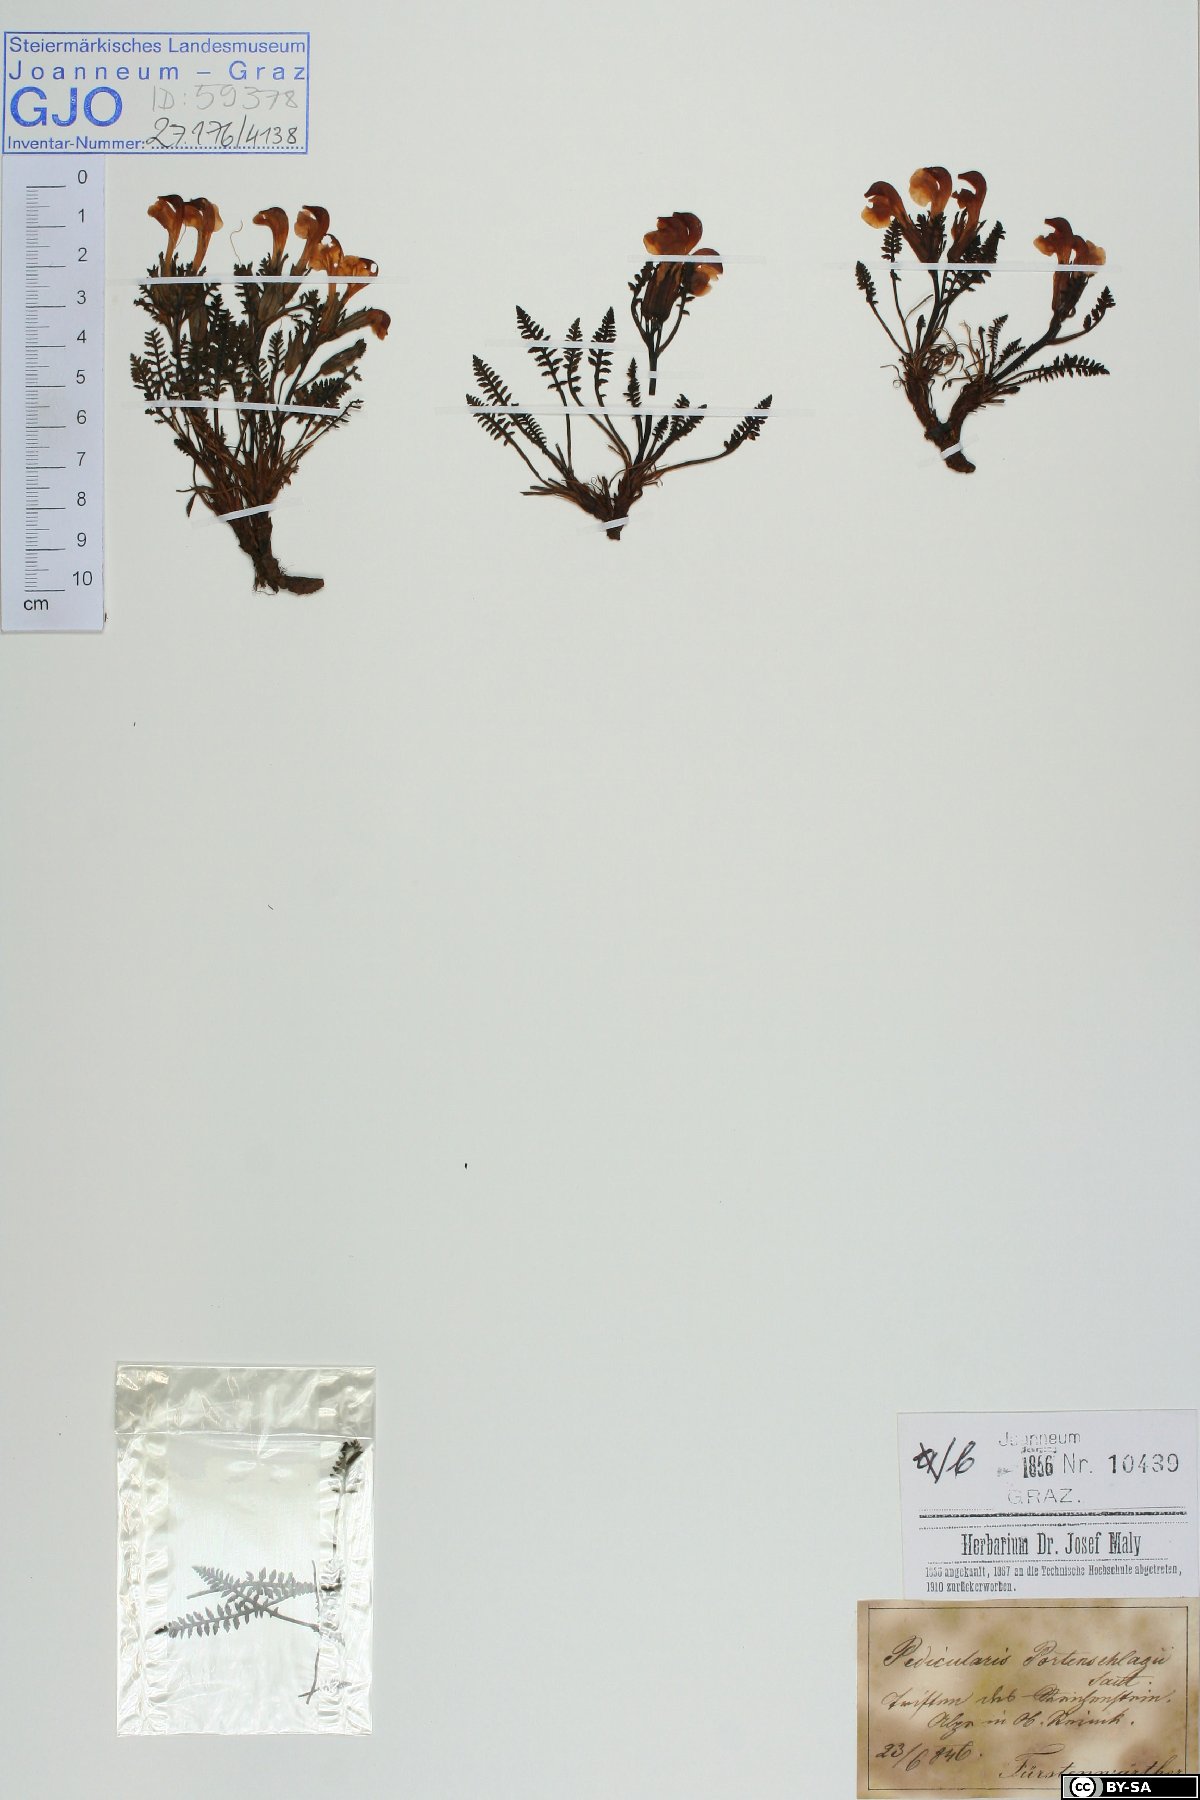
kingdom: Plantae
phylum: Tracheophyta
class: Magnoliopsida
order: Lamiales
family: Orobanchaceae
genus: Pedicularis
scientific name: Pedicularis portenschlagii
